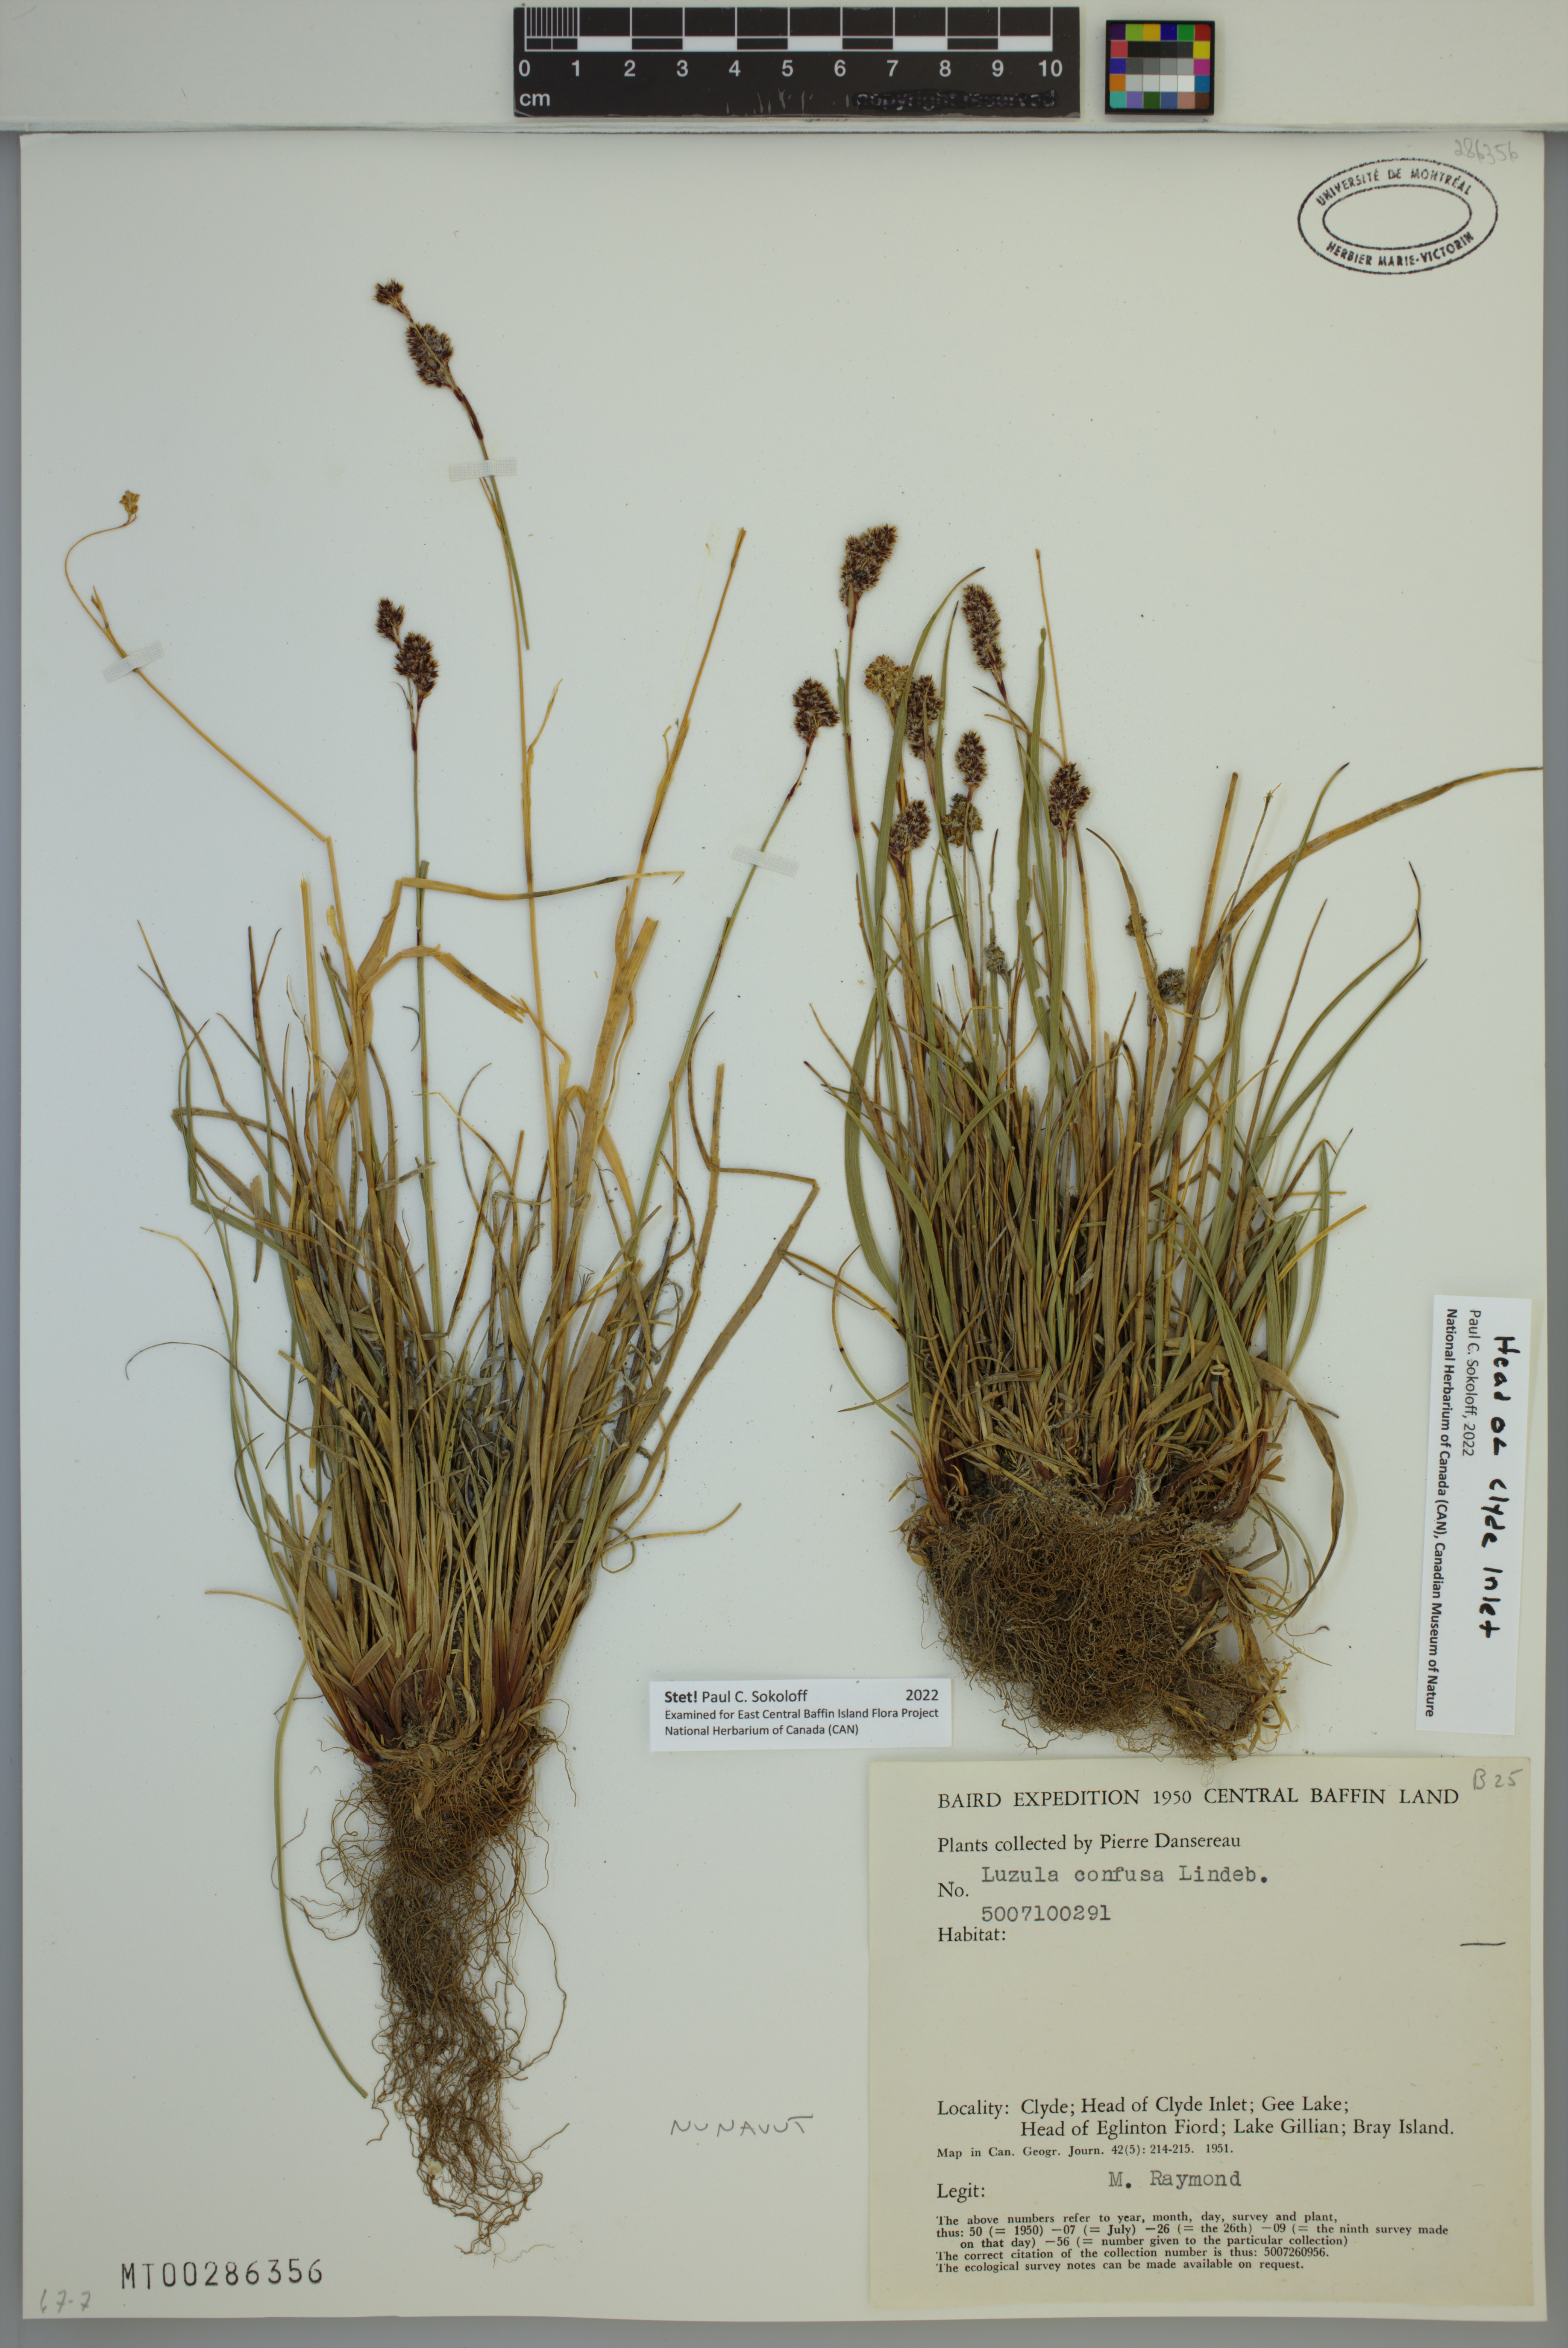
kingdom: Plantae
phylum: Tracheophyta
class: Liliopsida
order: Poales
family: Juncaceae
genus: Luzula
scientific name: Luzula confusa
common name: Northern wood rush
